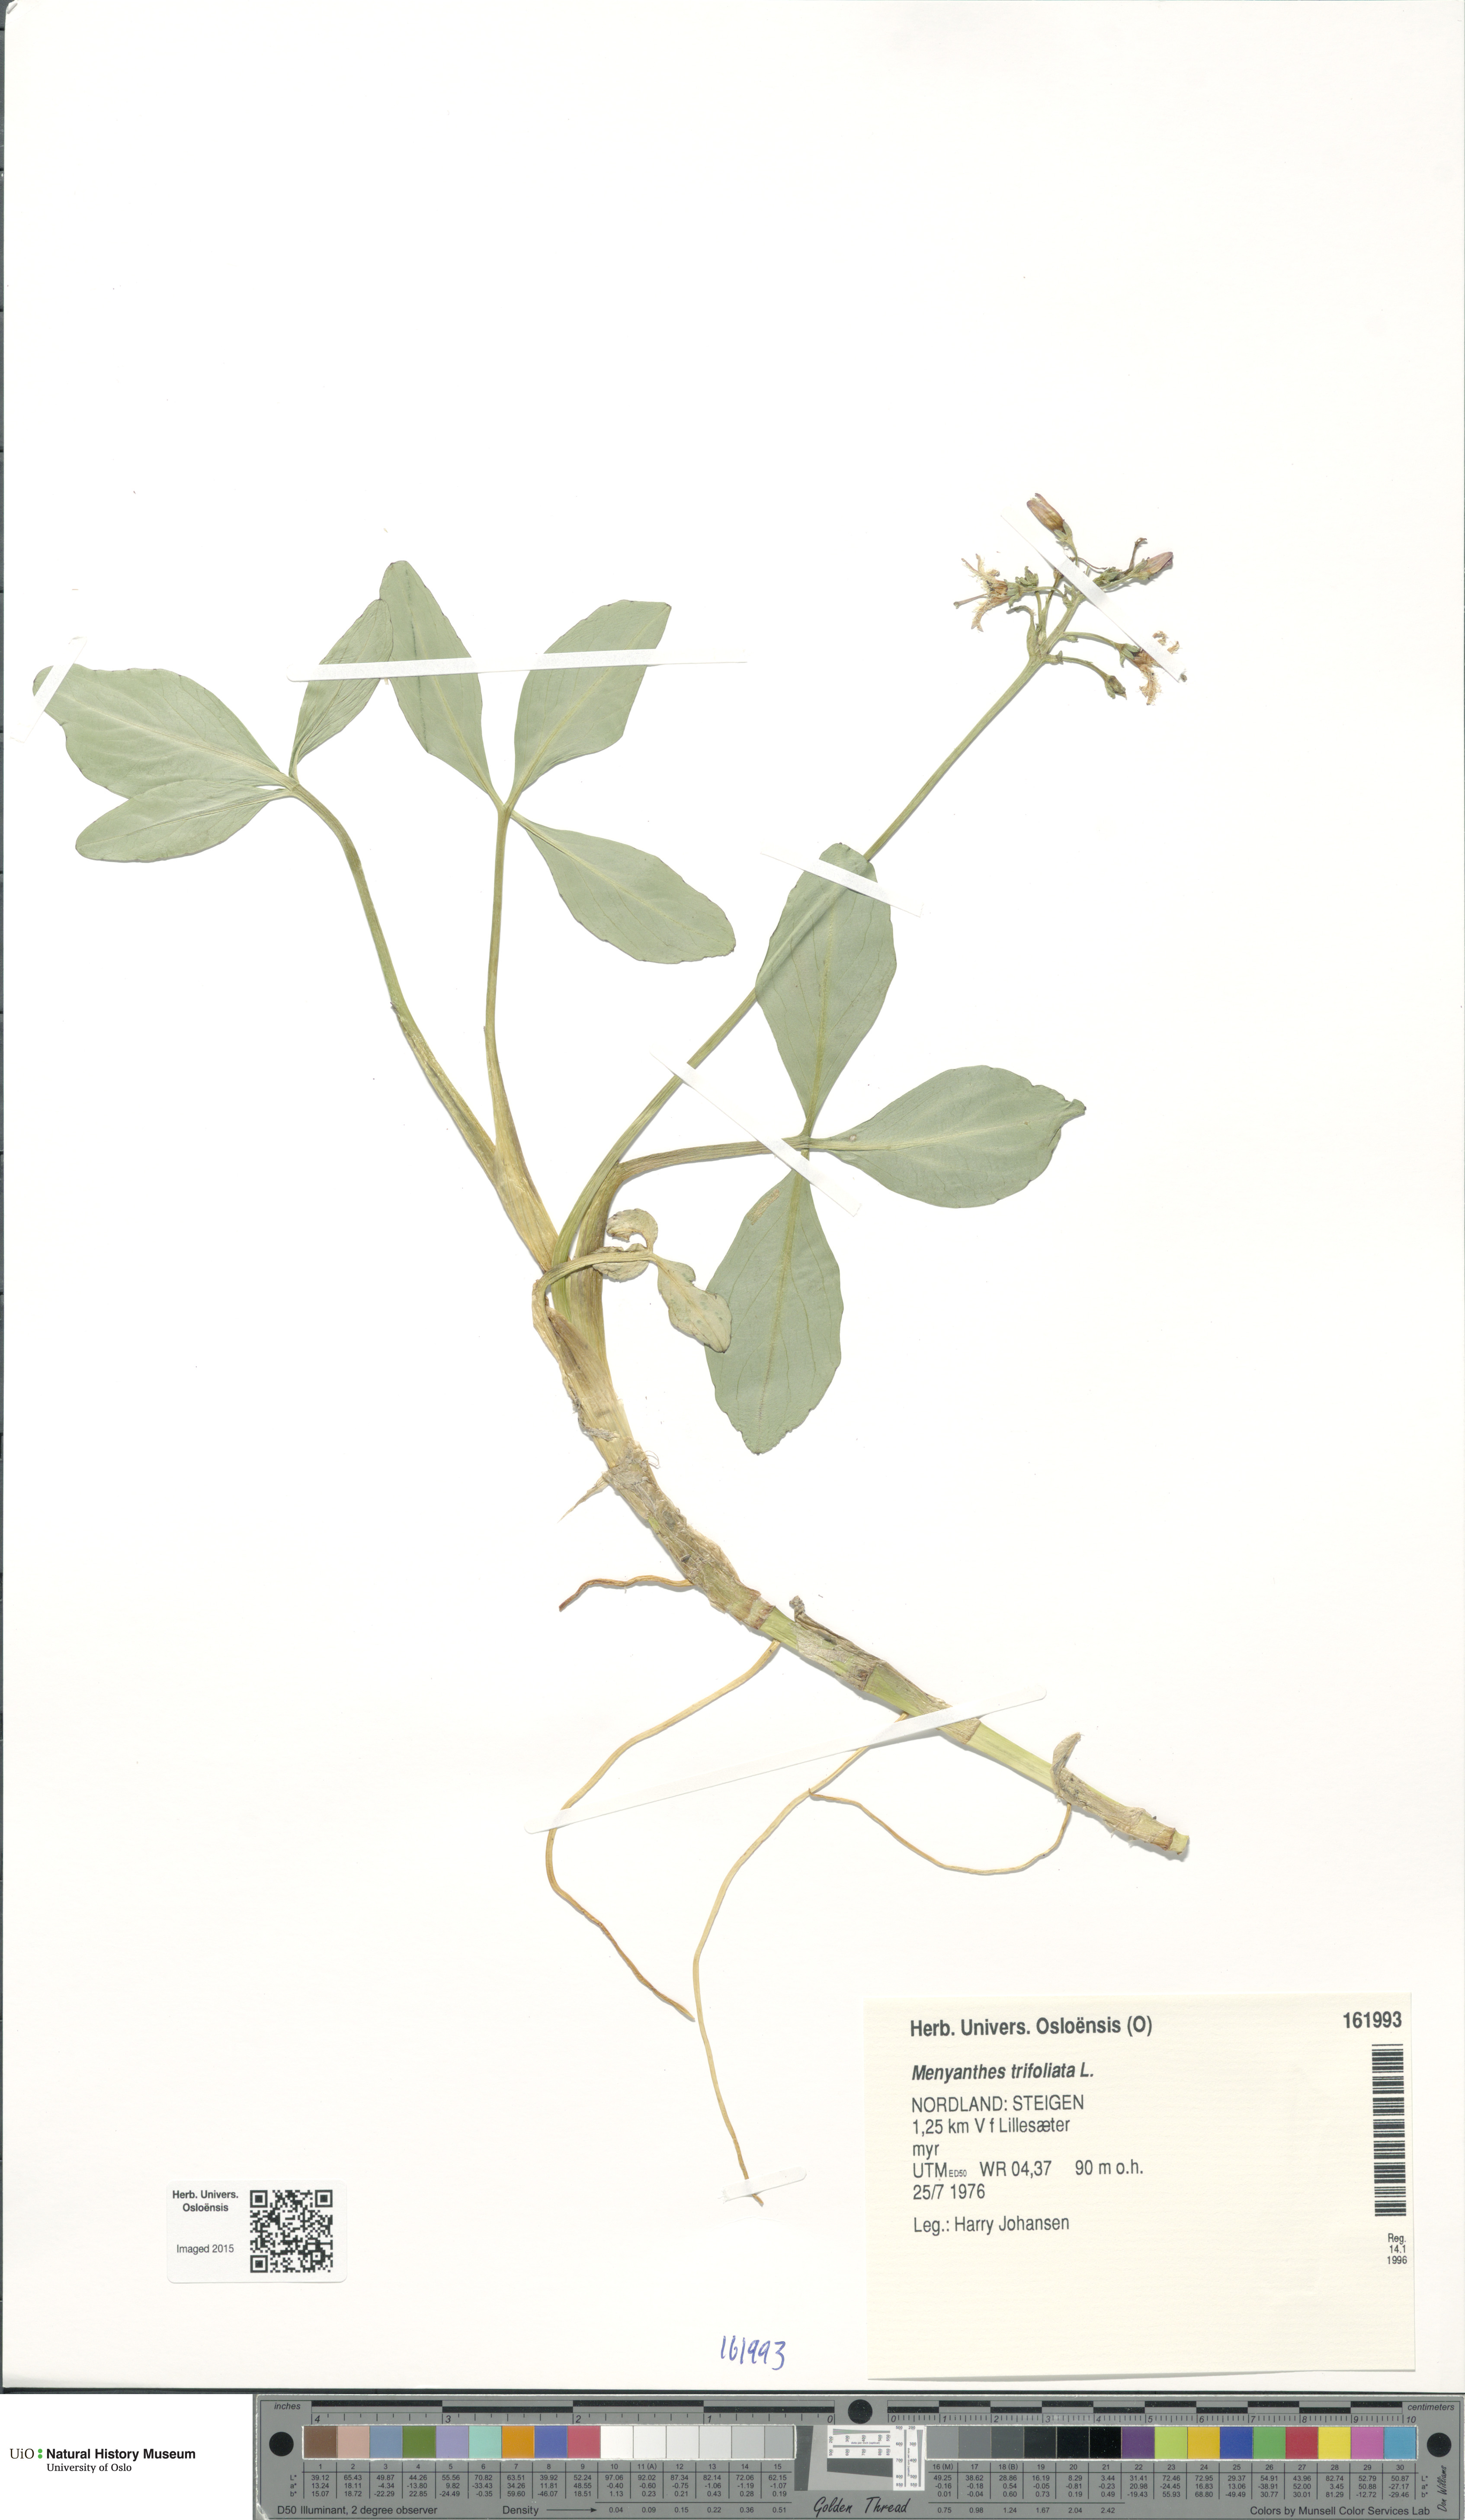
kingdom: Plantae
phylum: Tracheophyta
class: Magnoliopsida
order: Asterales
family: Menyanthaceae
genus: Menyanthes
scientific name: Menyanthes trifoliata
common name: Bogbean
